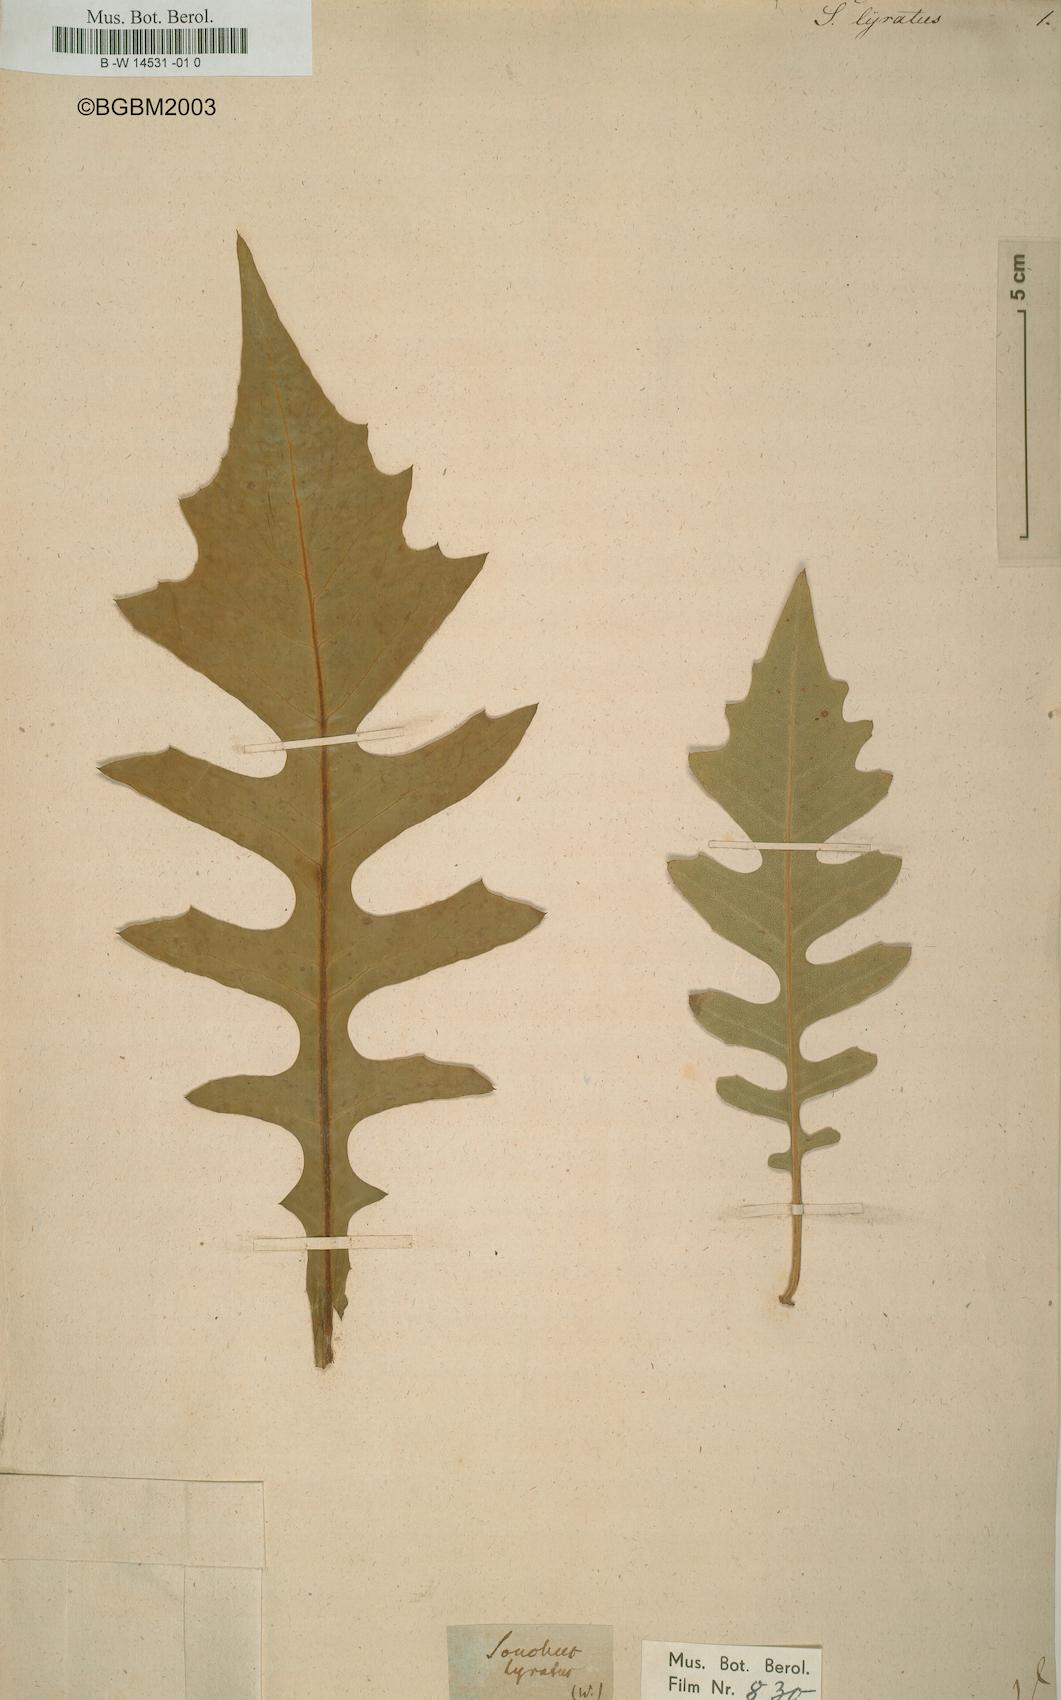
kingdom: Plantae
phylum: Tracheophyta
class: Magnoliopsida
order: Asterales
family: Asteraceae
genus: Sonchus
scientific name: Sonchus fruticosus
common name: Shrubby sow-thistle
